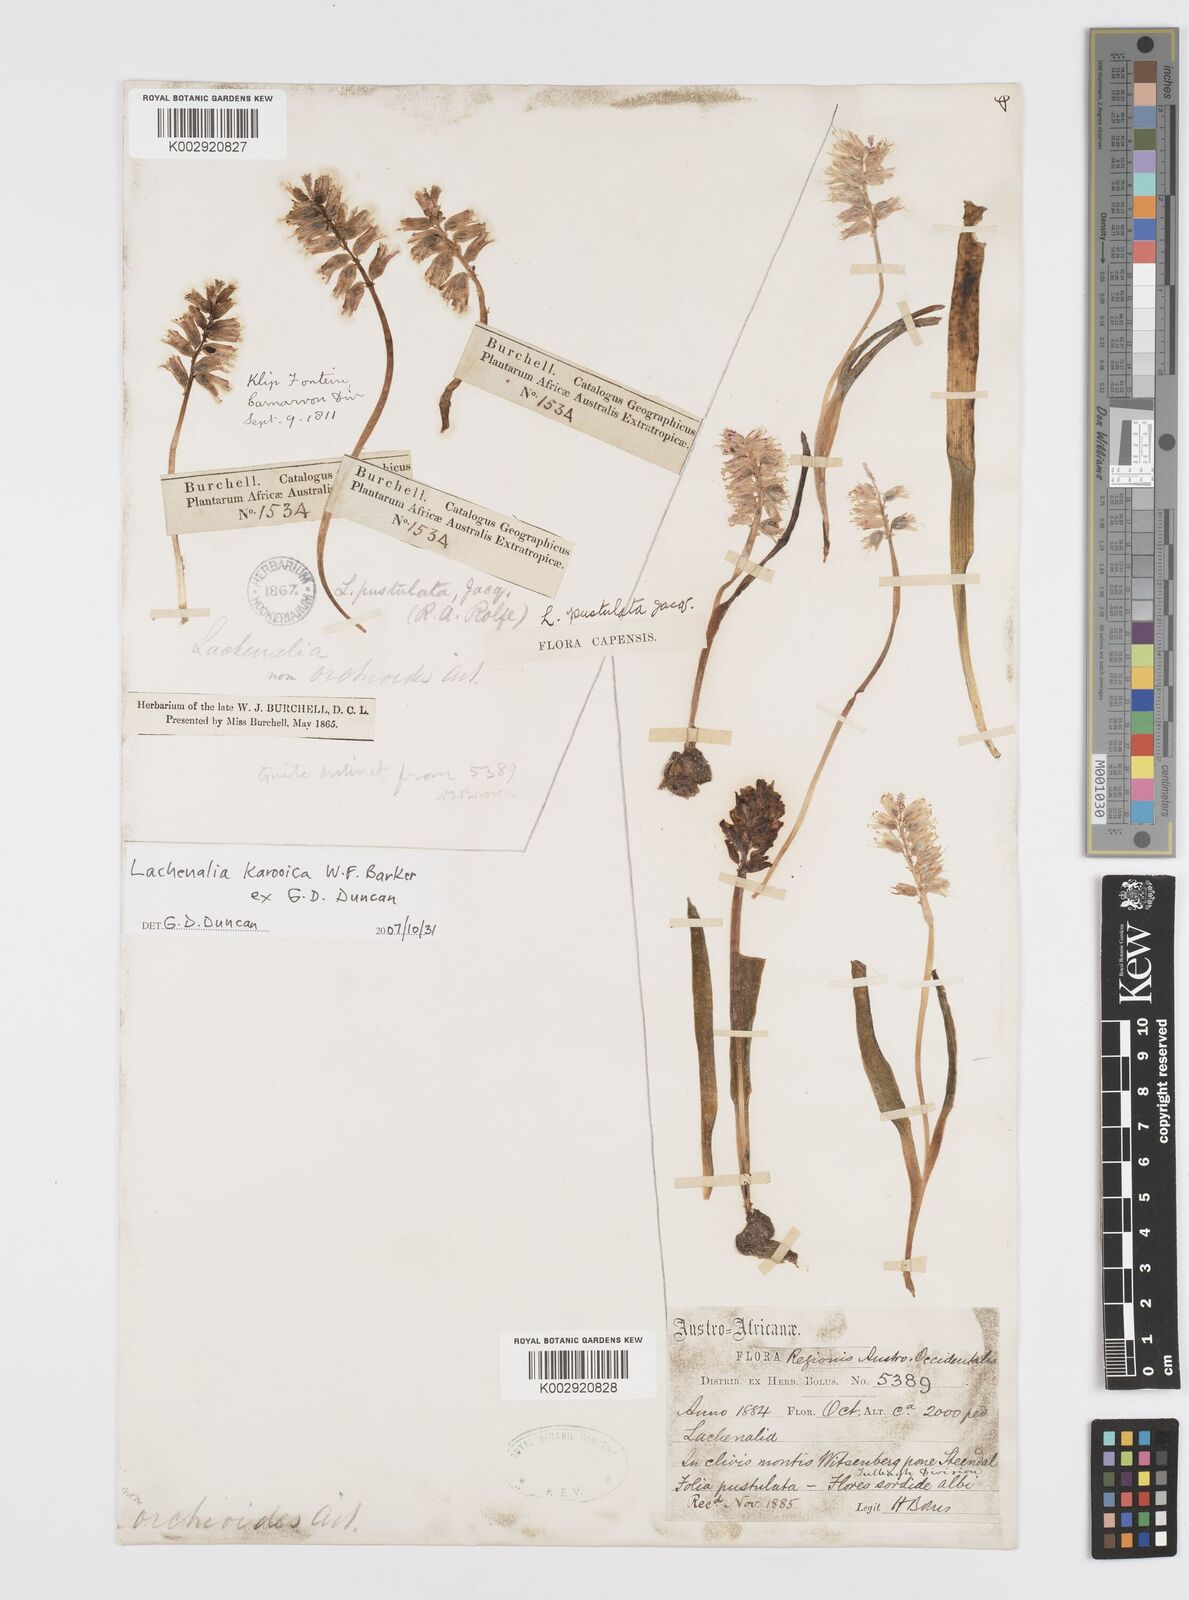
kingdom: Plantae
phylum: Tracheophyta
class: Liliopsida
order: Asparagales
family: Asparagaceae
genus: Lachenalia
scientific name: Lachenalia karooica
